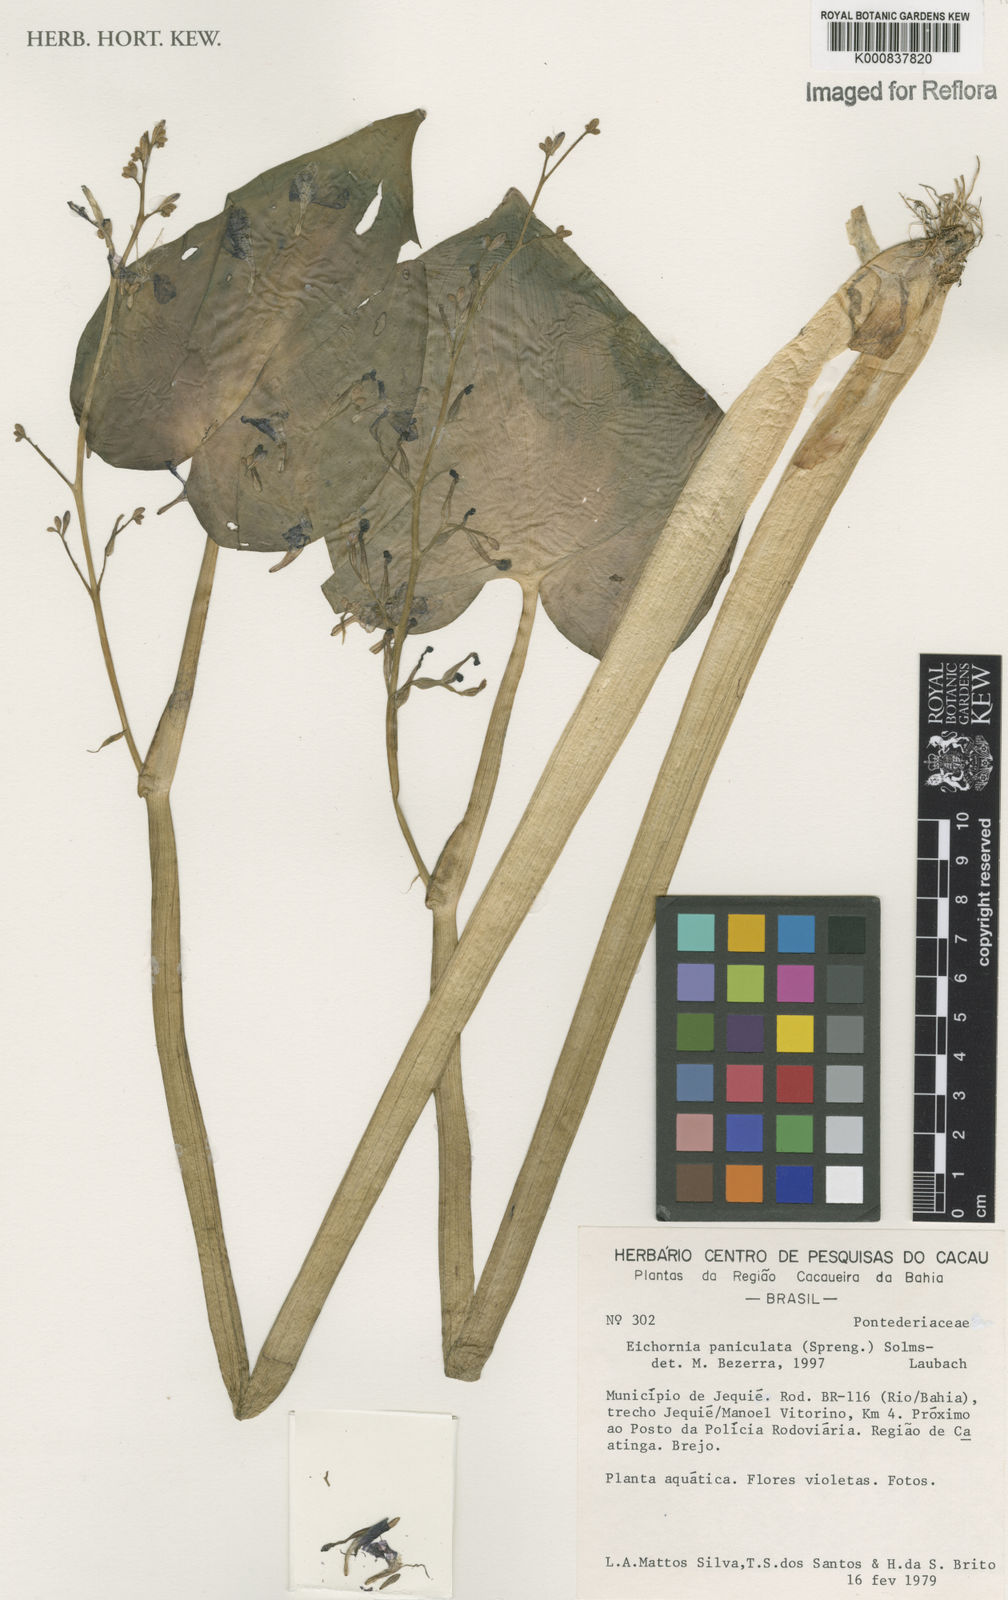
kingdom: Plantae
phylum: Tracheophyta
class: Liliopsida
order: Commelinales
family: Pontederiaceae
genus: Pontederia
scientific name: Pontederia paniculata
